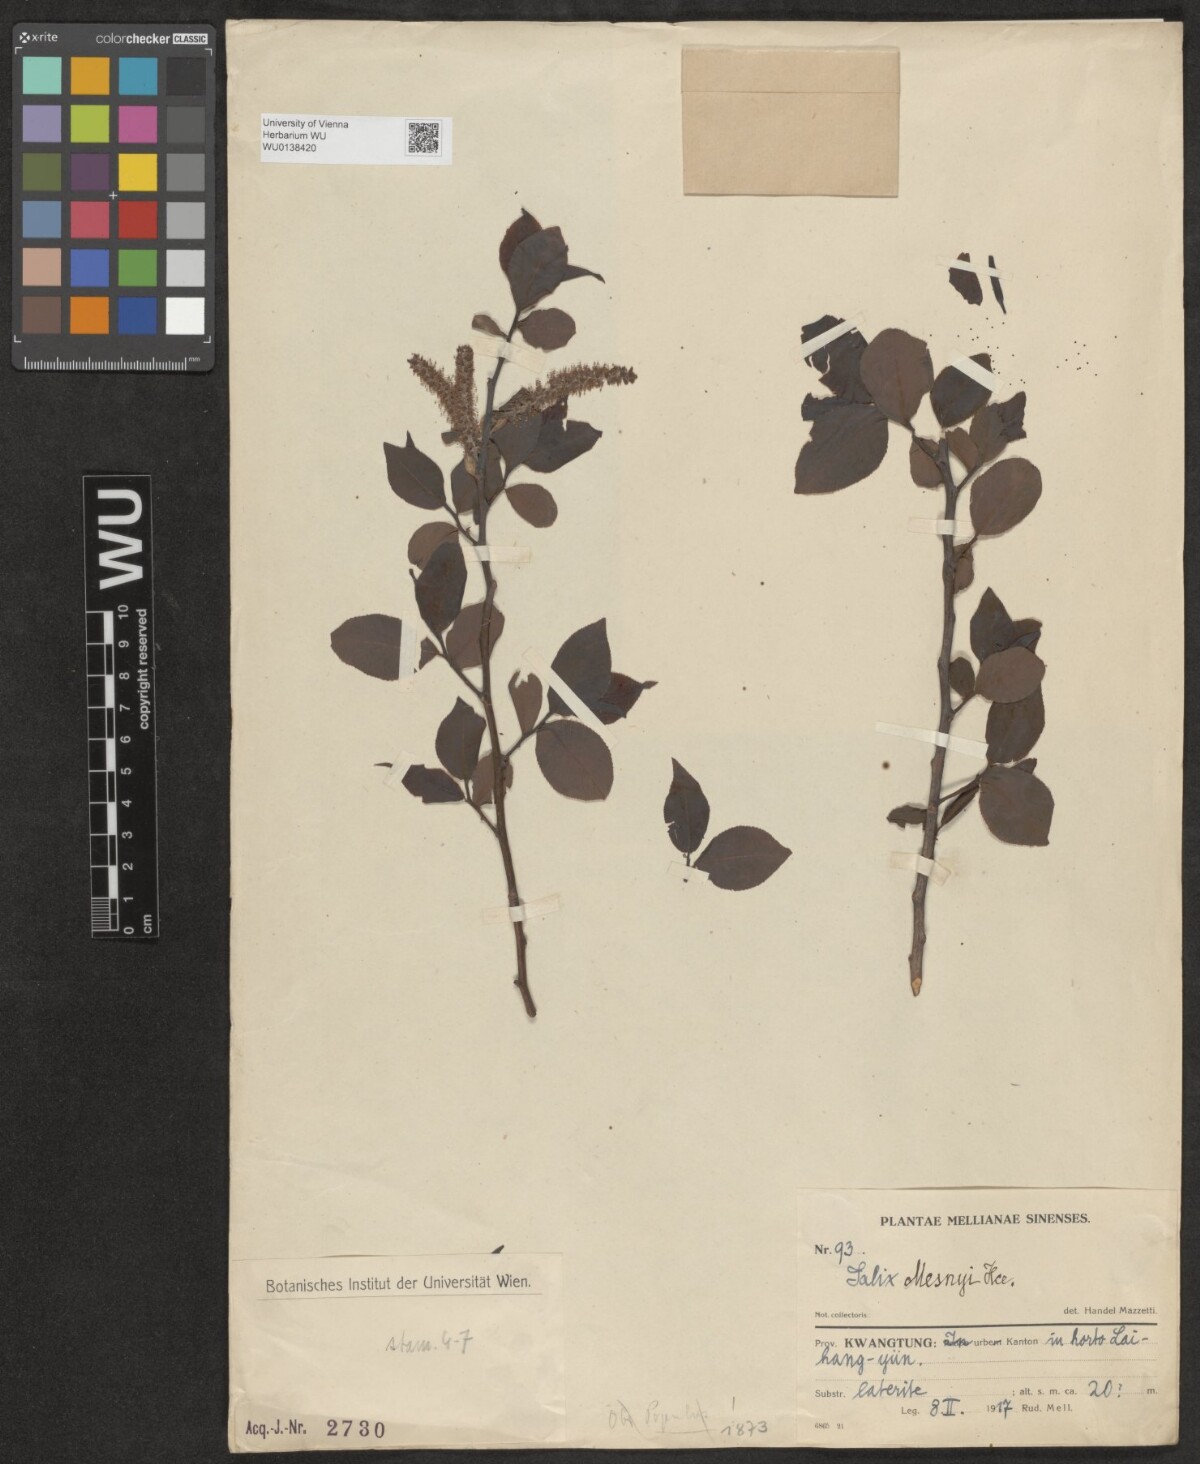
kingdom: Plantae
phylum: Tracheophyta
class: Magnoliopsida
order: Malpighiales
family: Salicaceae
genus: Salix
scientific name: Salix mesnyi
